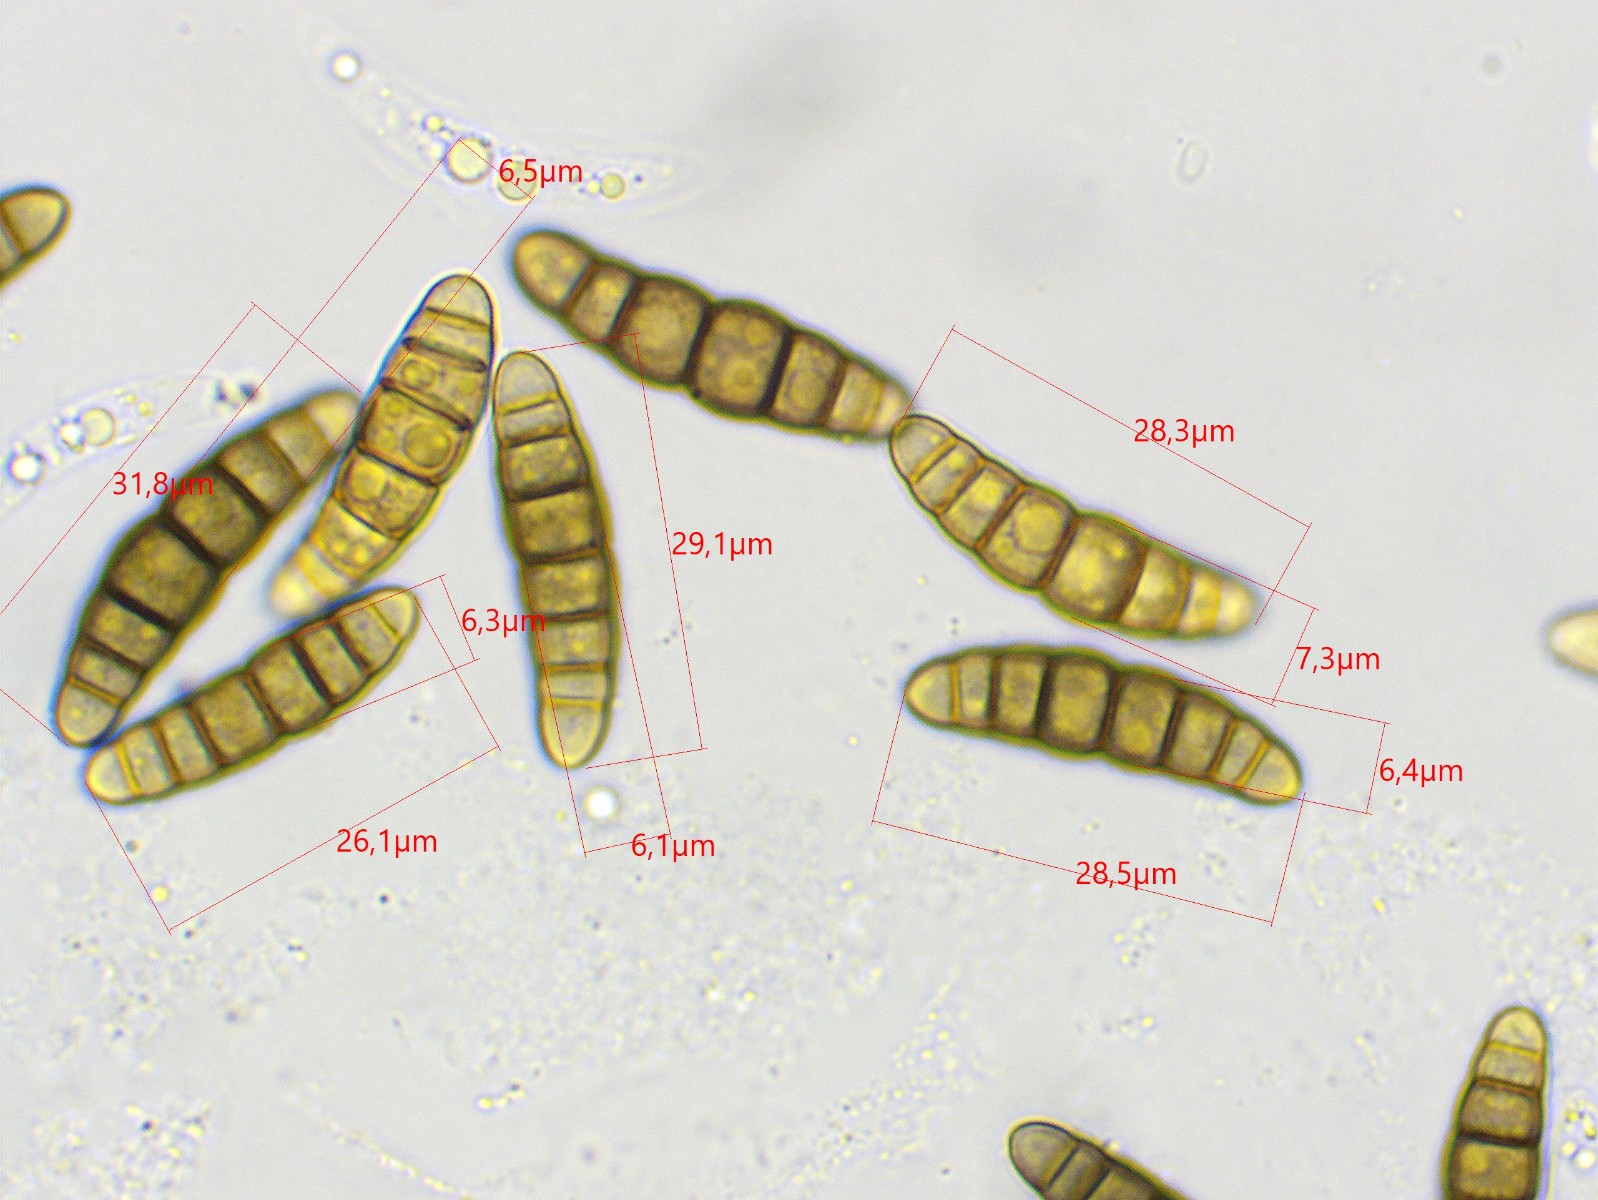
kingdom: Fungi
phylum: Ascomycota
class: Dothideomycetes
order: Pleosporales
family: Thyridariaceae
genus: Thyridaria
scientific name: Thyridaria macrostomoides
